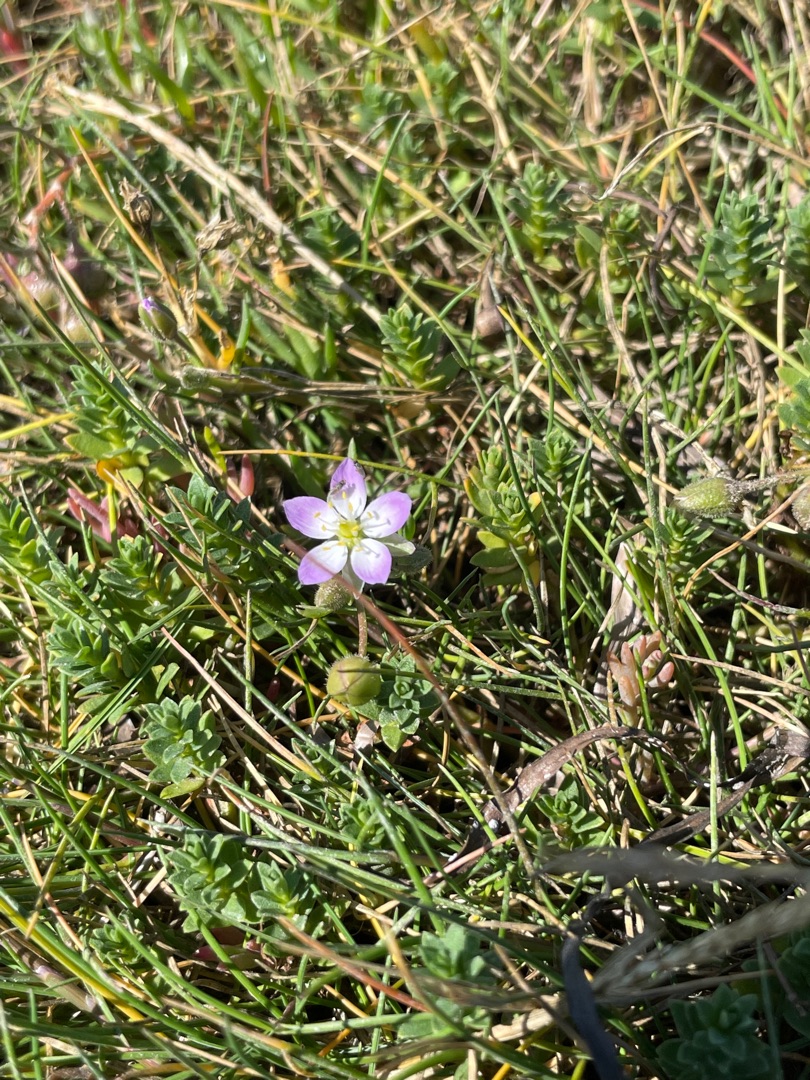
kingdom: Plantae
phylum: Tracheophyta
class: Magnoliopsida
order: Caryophyllales
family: Caryophyllaceae
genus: Spergularia
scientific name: Spergularia media
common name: Vingefrøet hindeknæ
